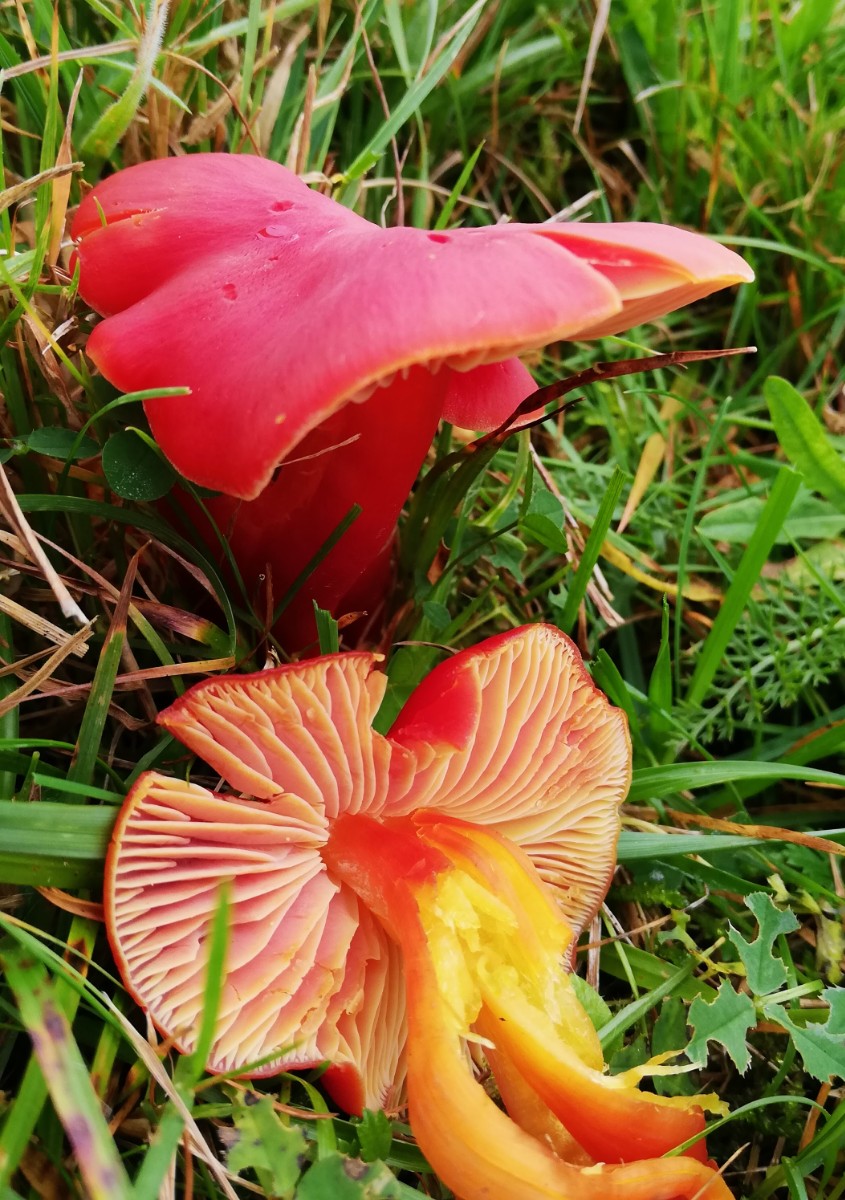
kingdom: Fungi
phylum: Basidiomycota
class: Agaricomycetes
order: Agaricales
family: Hygrophoraceae
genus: Hygrocybe
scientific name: Hygrocybe splendidissima
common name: knaldrød vokshat
